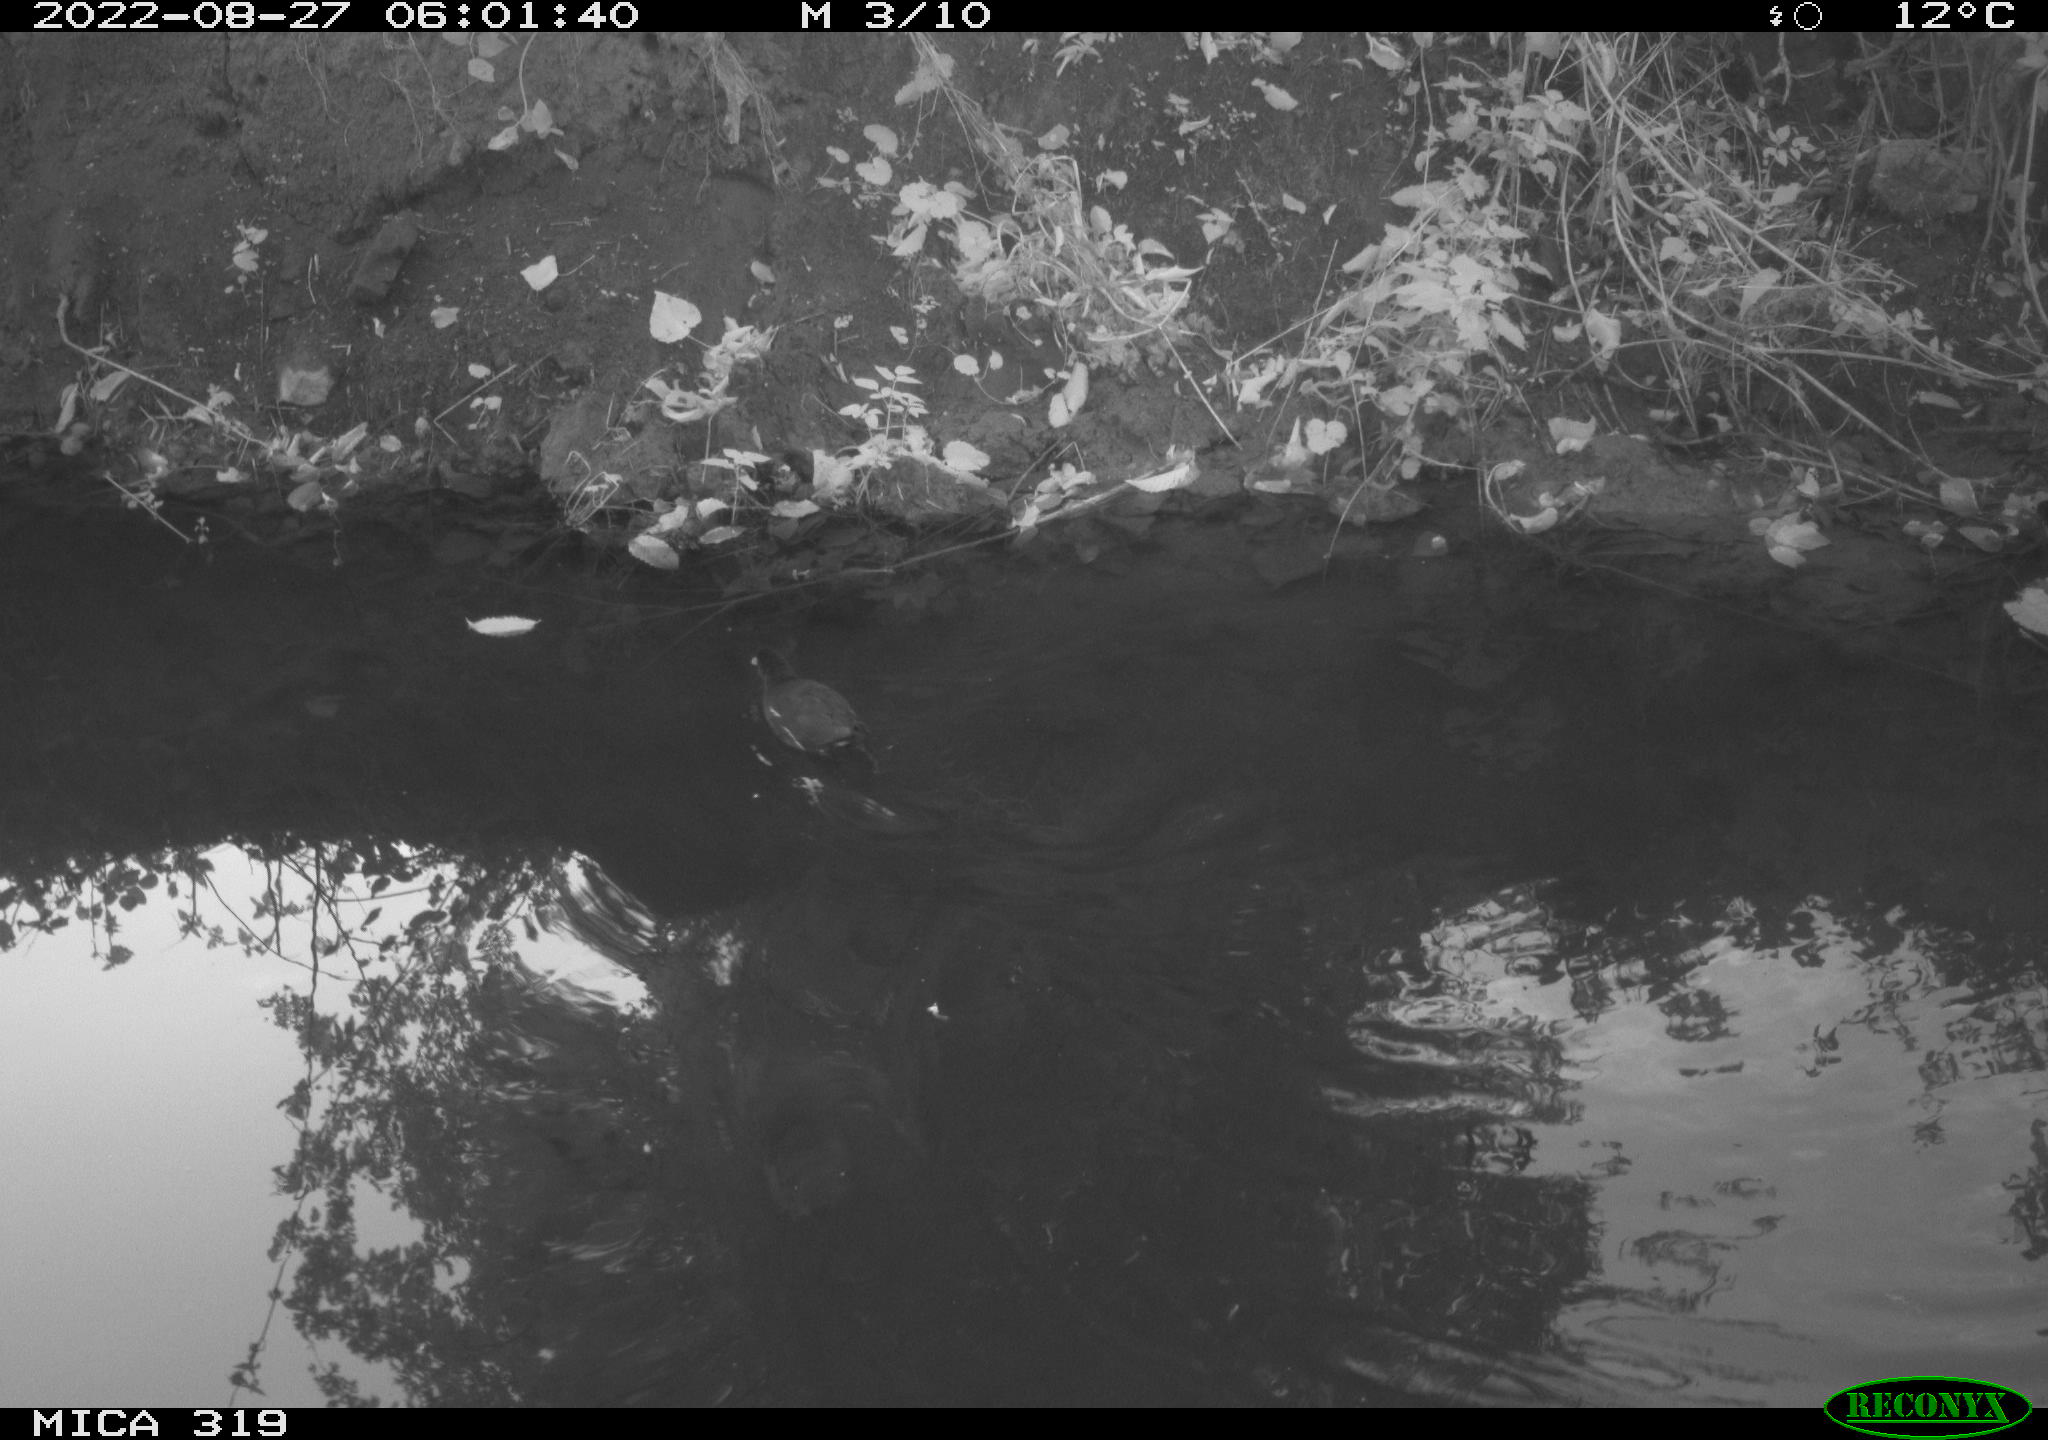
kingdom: Animalia
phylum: Chordata
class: Aves
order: Gruiformes
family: Rallidae
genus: Gallinula
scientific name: Gallinula chloropus
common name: Common moorhen
